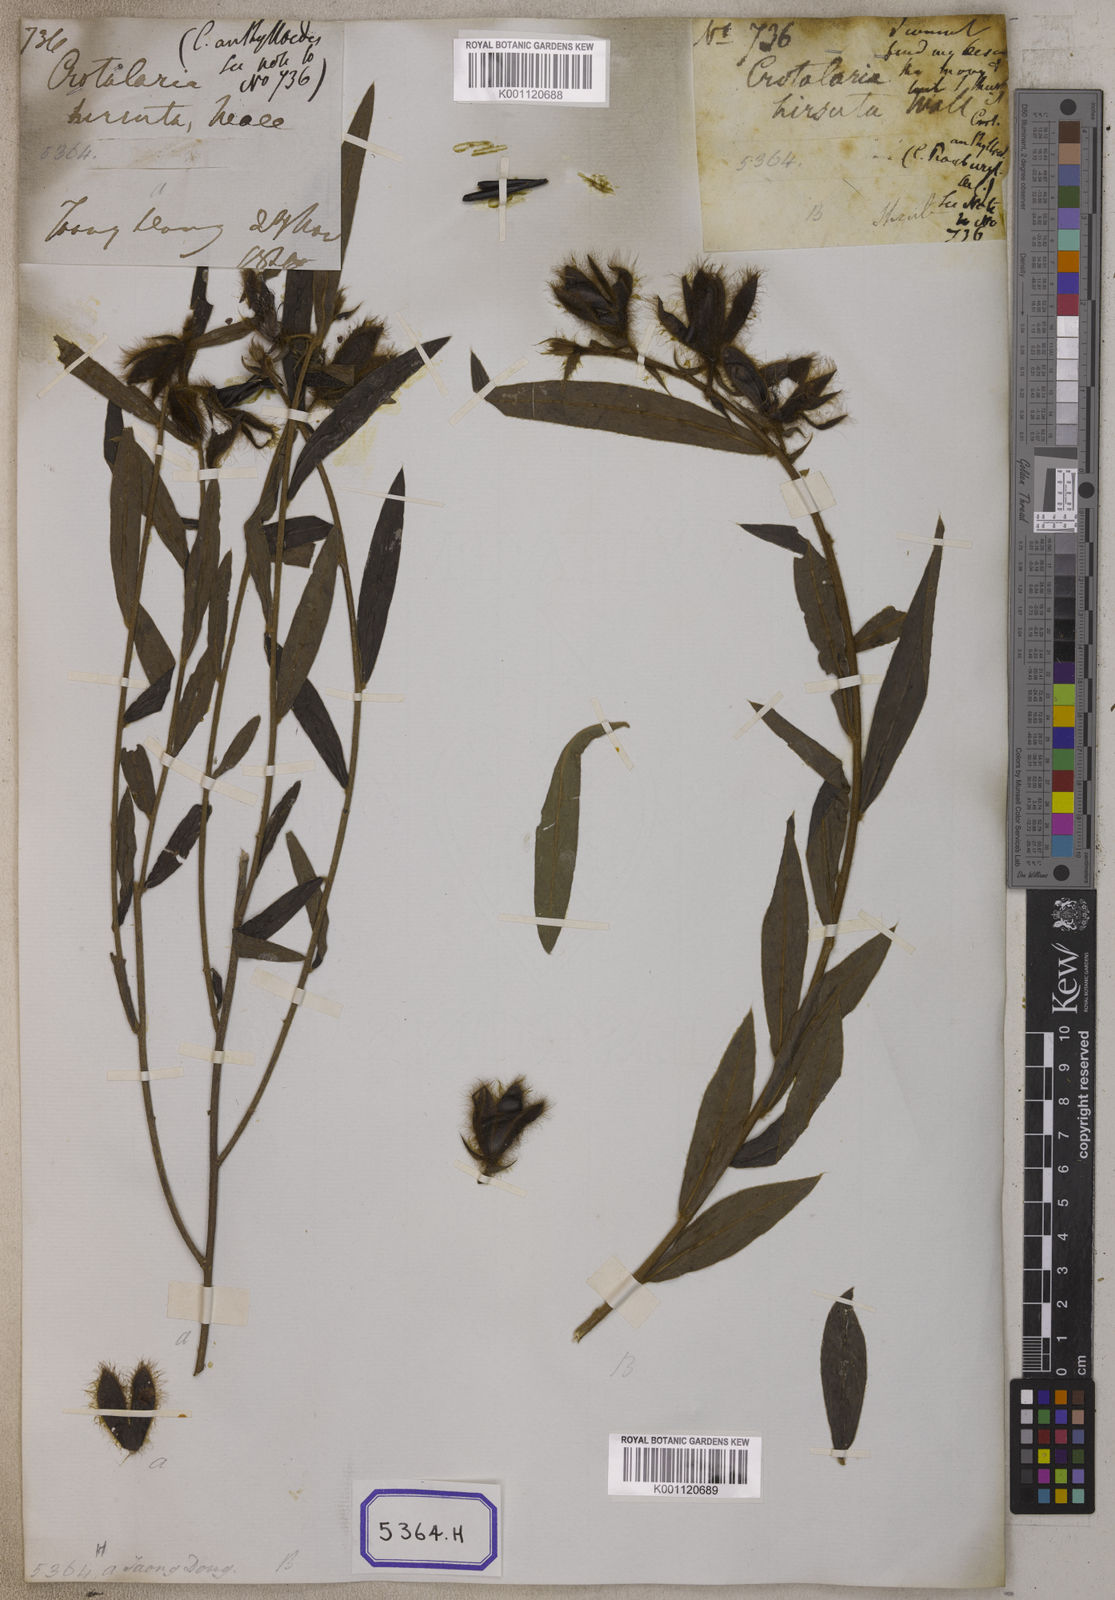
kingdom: Plantae
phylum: Tracheophyta
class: Magnoliopsida
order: Fabales
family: Fabaceae
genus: Crotalaria
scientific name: Crotalaria calycina
